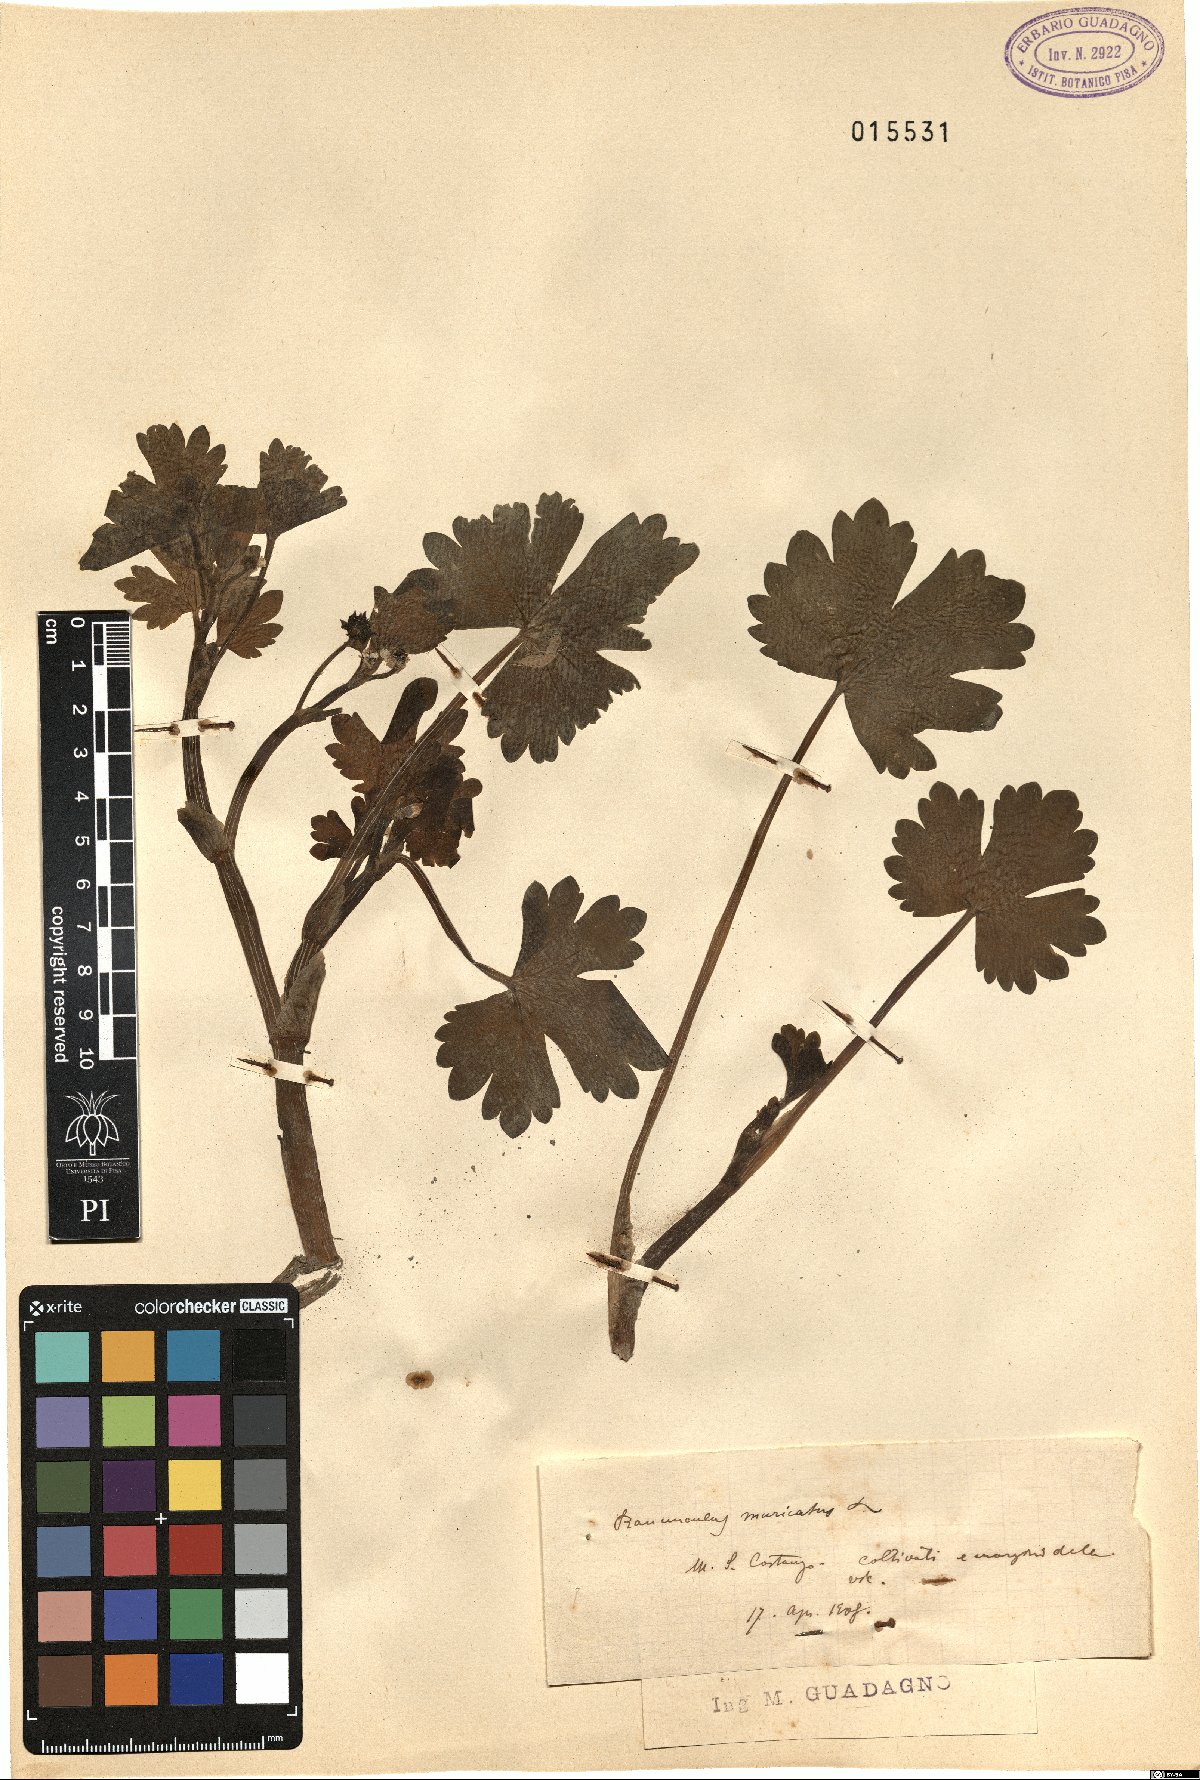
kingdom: Plantae
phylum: Tracheophyta
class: Magnoliopsida
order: Ranunculales
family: Ranunculaceae
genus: Ranunculus
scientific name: Ranunculus muricatus
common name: Rough-fruited buttercup
